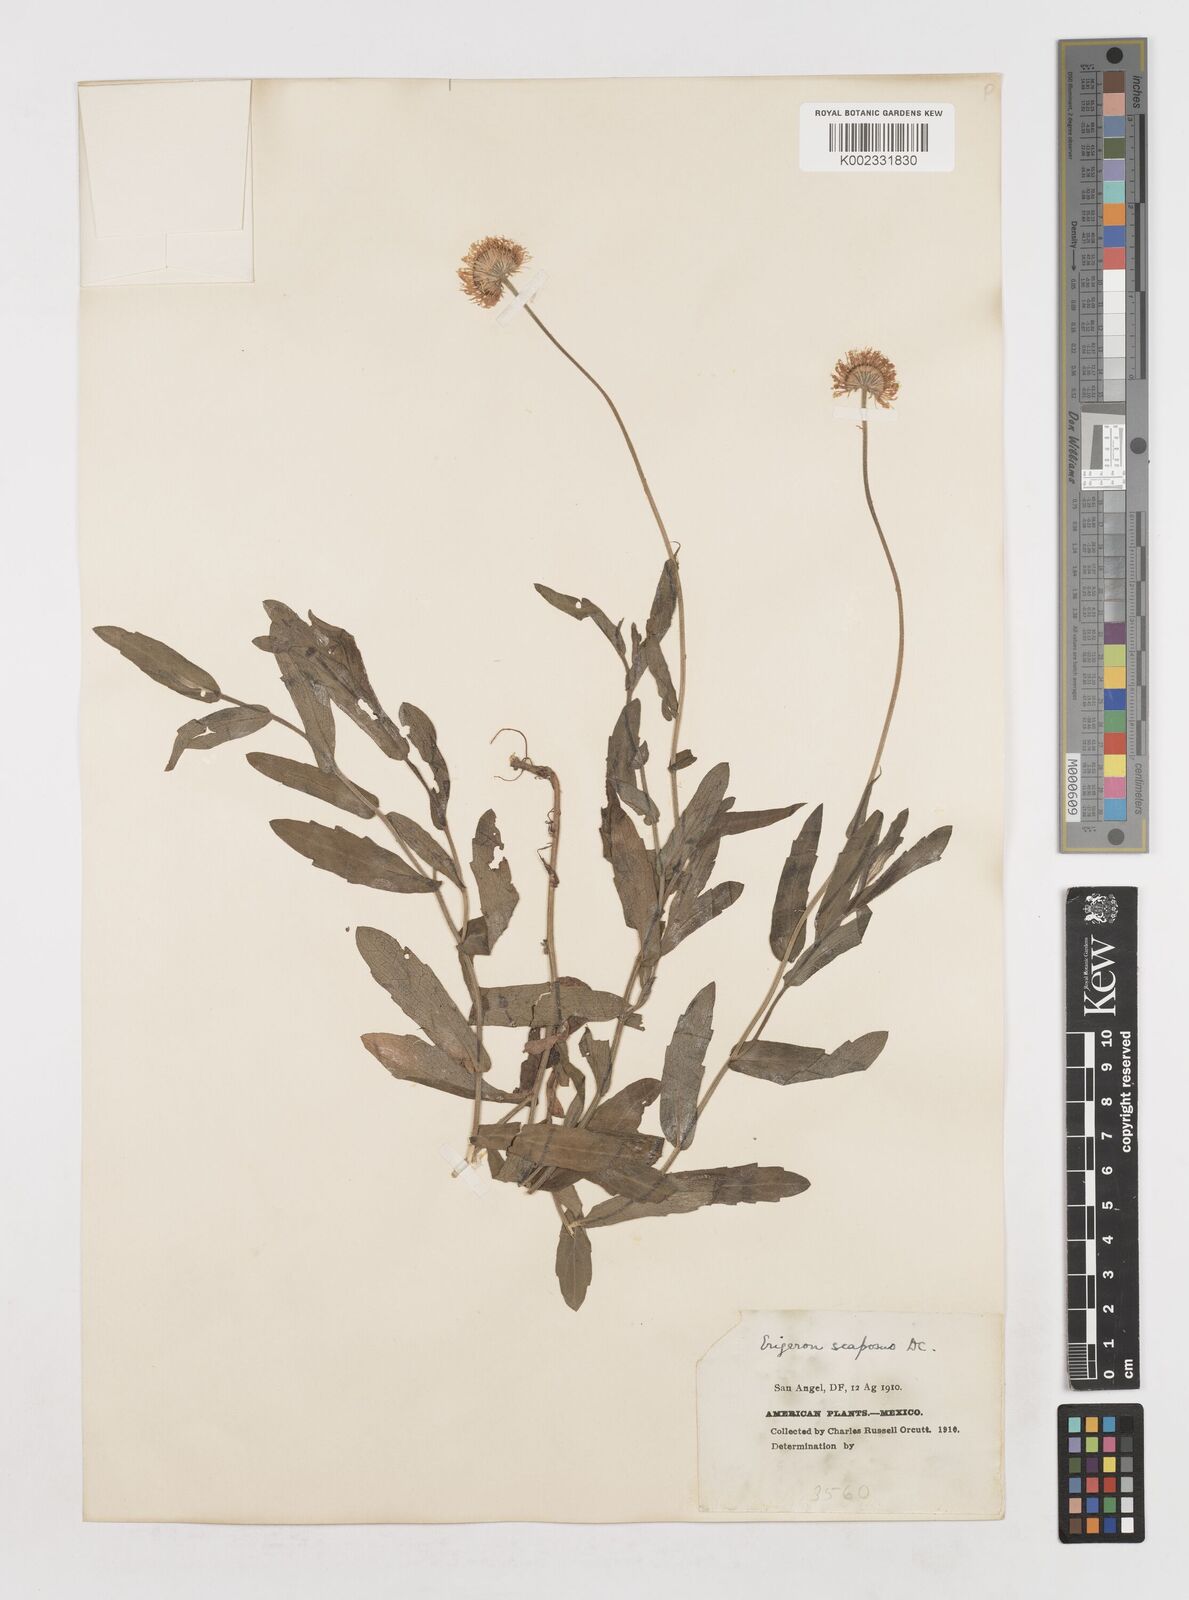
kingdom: Plantae
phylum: Tracheophyta
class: Magnoliopsida
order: Asterales
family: Asteraceae
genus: Erigeron
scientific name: Erigeron longipes
